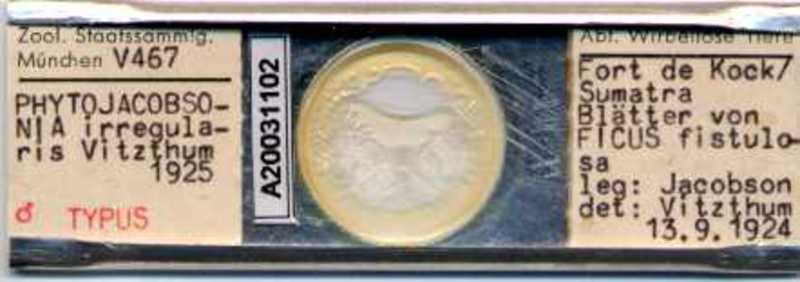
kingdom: Animalia
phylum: Arthropoda
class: Arachnida
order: Mesostigmata
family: Laelapidae
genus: Phytojacobsonia
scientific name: Phytojacobsonia
